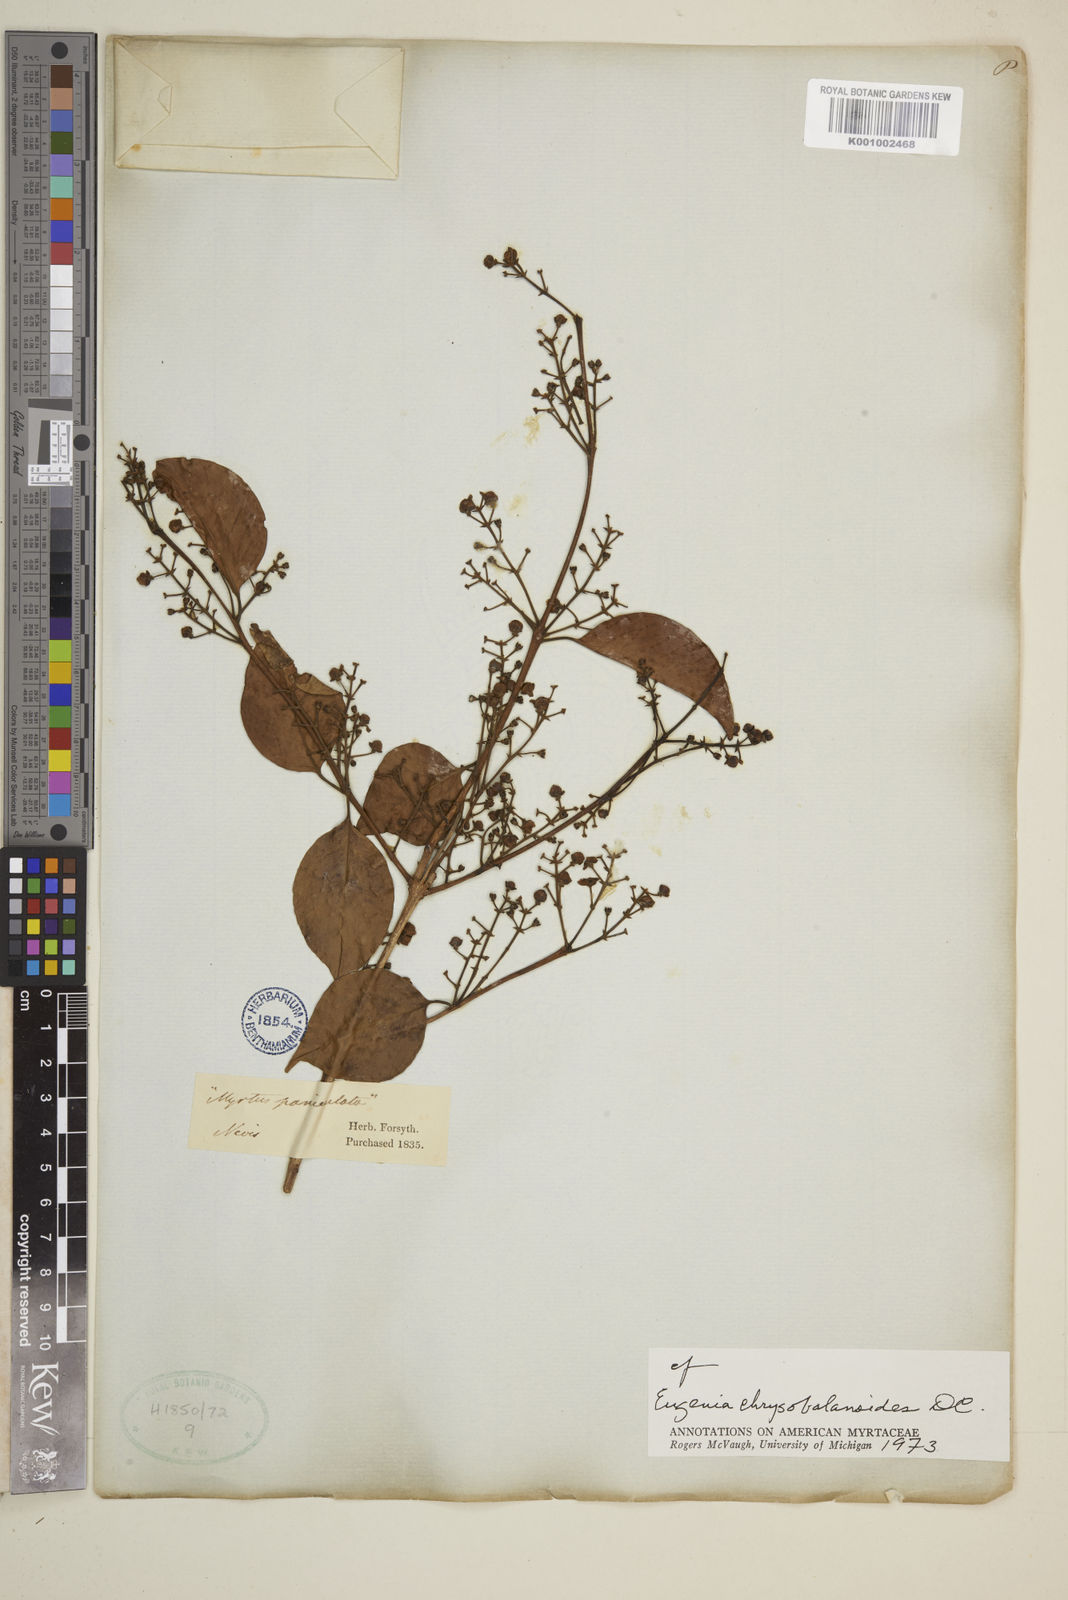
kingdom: Plantae
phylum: Tracheophyta
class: Magnoliopsida
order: Myrtales
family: Myrtaceae
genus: Eugenia
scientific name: Eugenia chrysobalanoides
